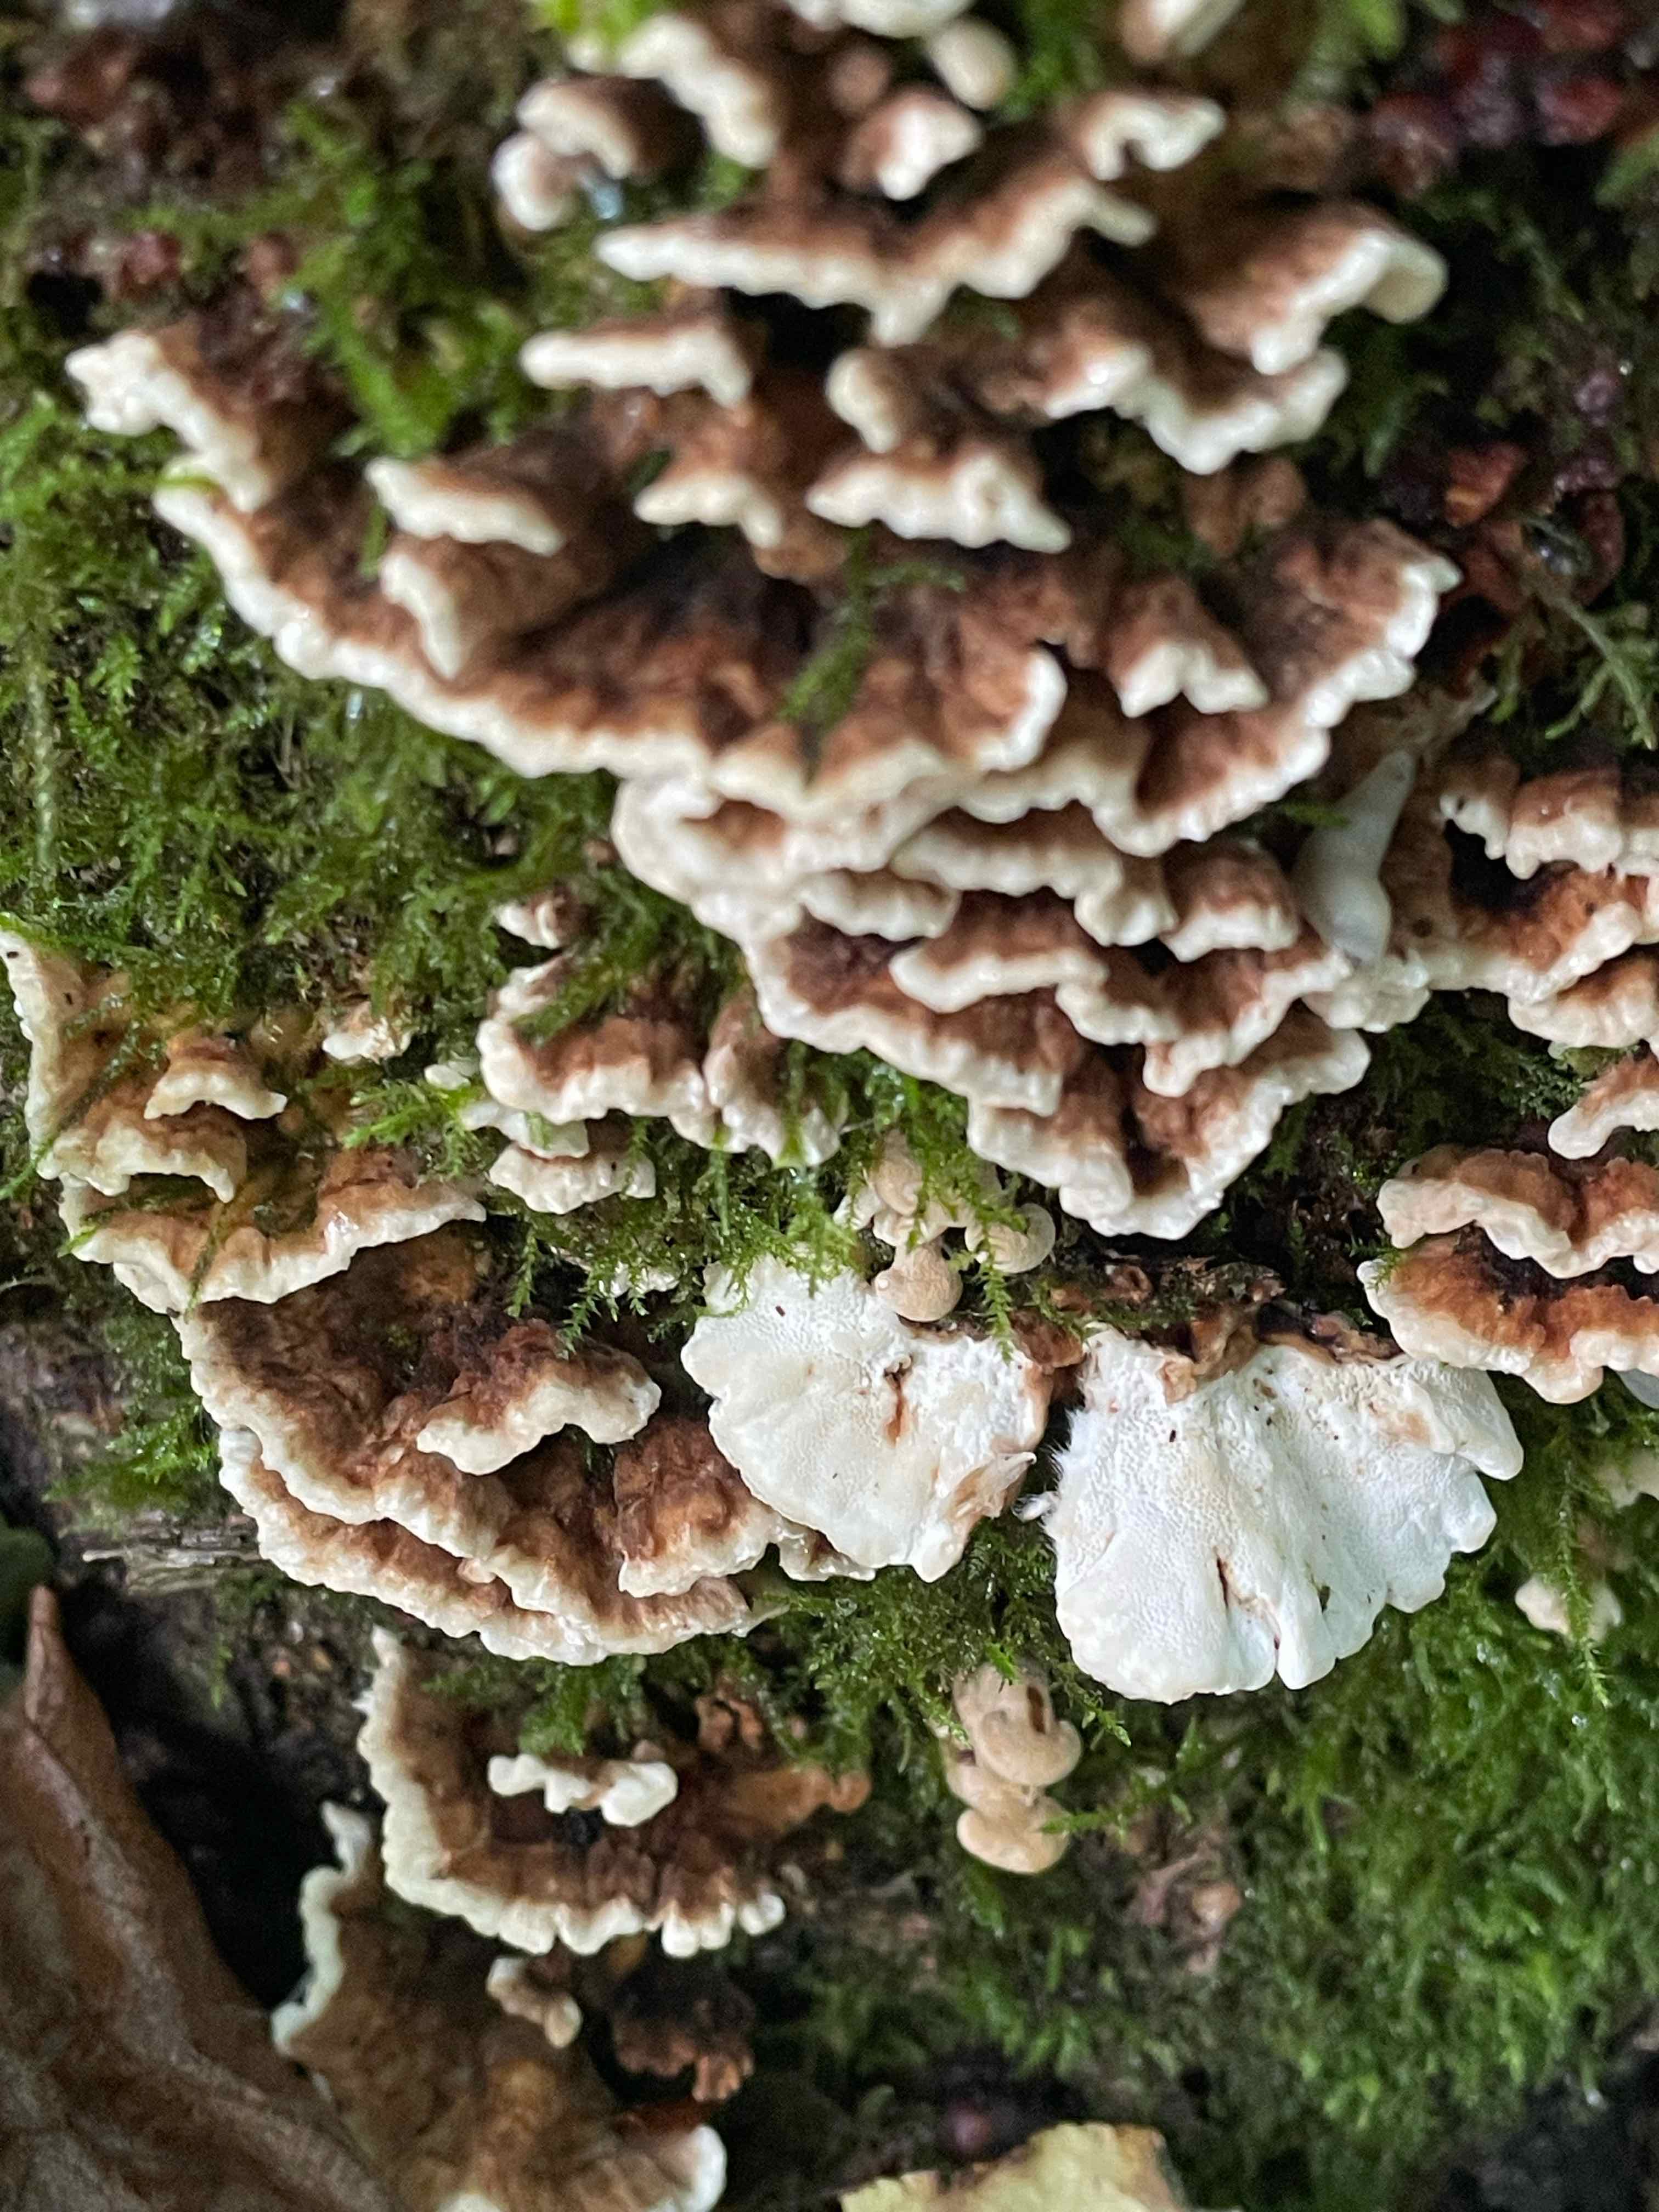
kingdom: Fungi
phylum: Basidiomycota
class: Agaricomycetes
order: Russulales
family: Hericiaceae
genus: Laxitextum
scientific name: Laxitextum bicolor
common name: tvefarvet filtskind
